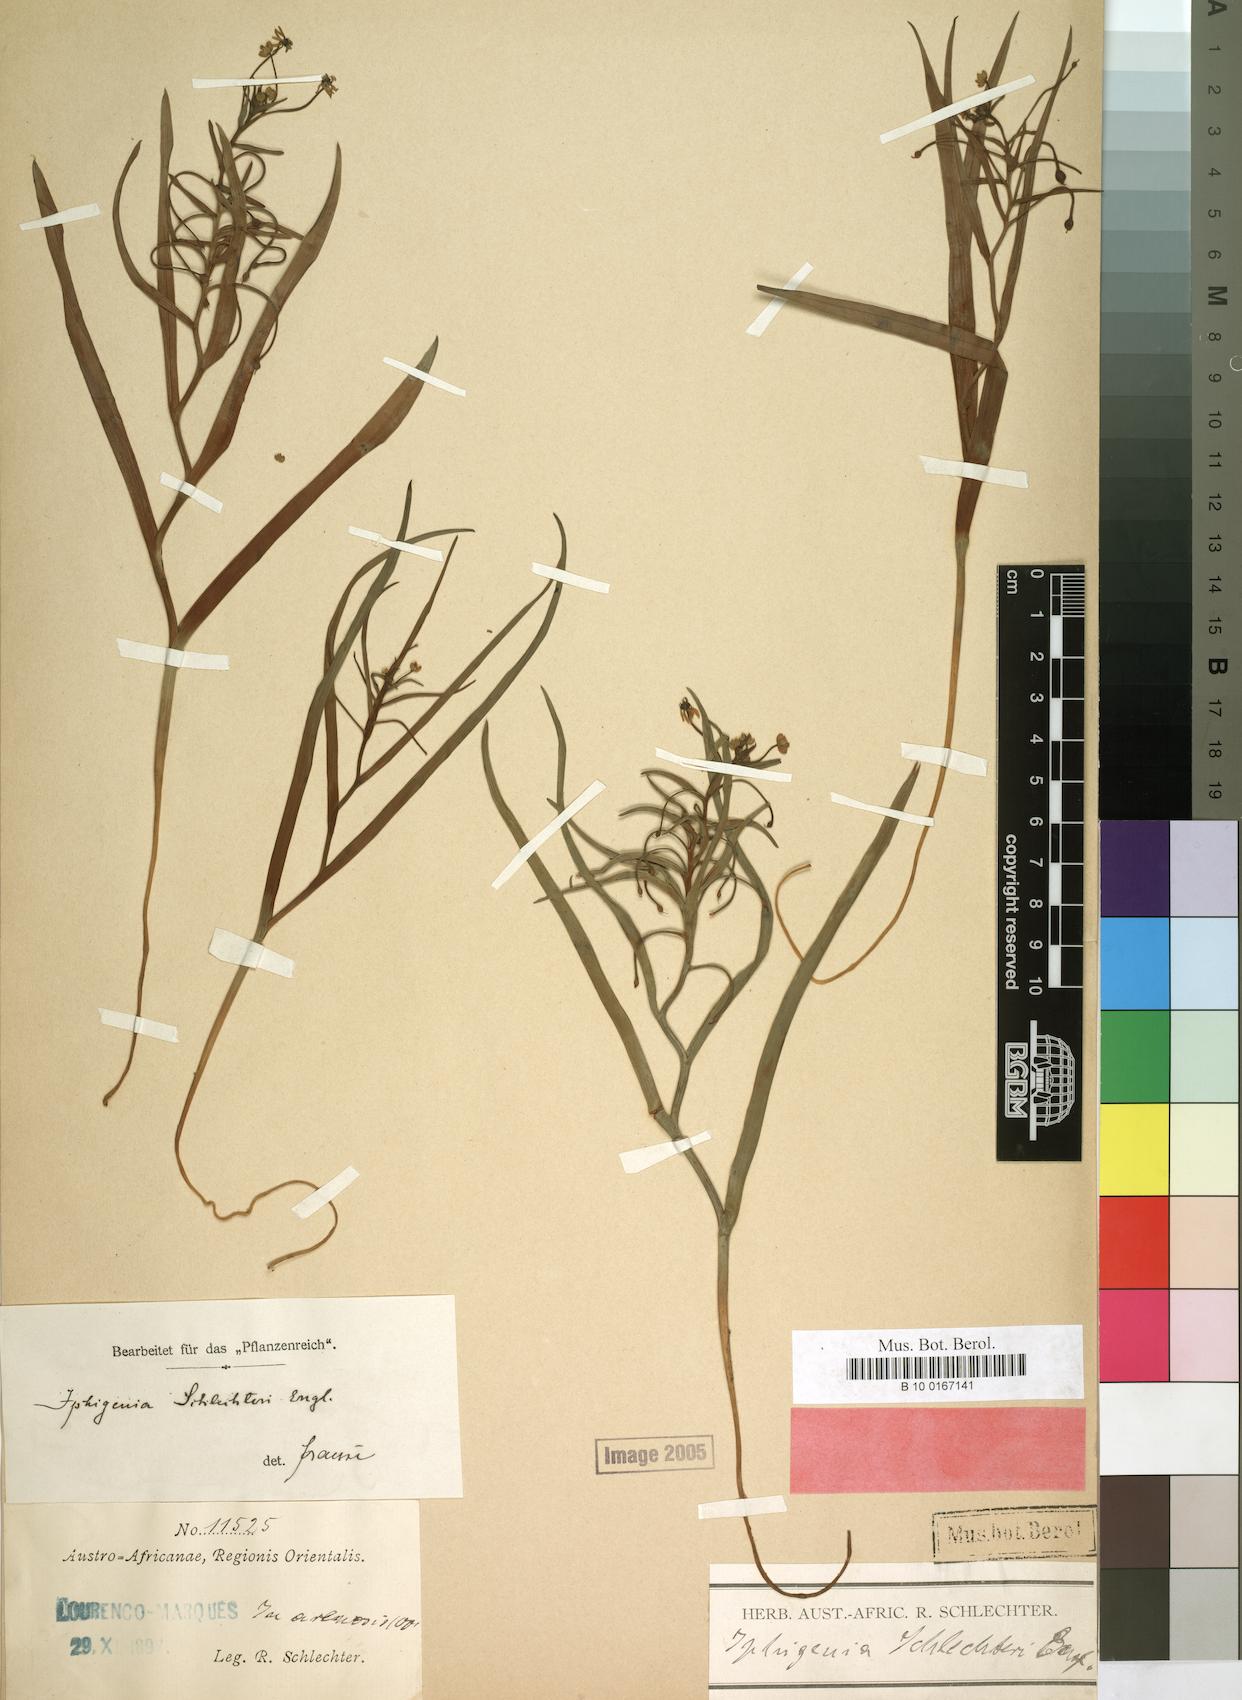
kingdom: Plantae
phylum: Tracheophyta
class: Liliopsida
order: Liliales
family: Colchicaceae
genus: Camptorrhiza
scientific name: Camptorrhiza strumosa
